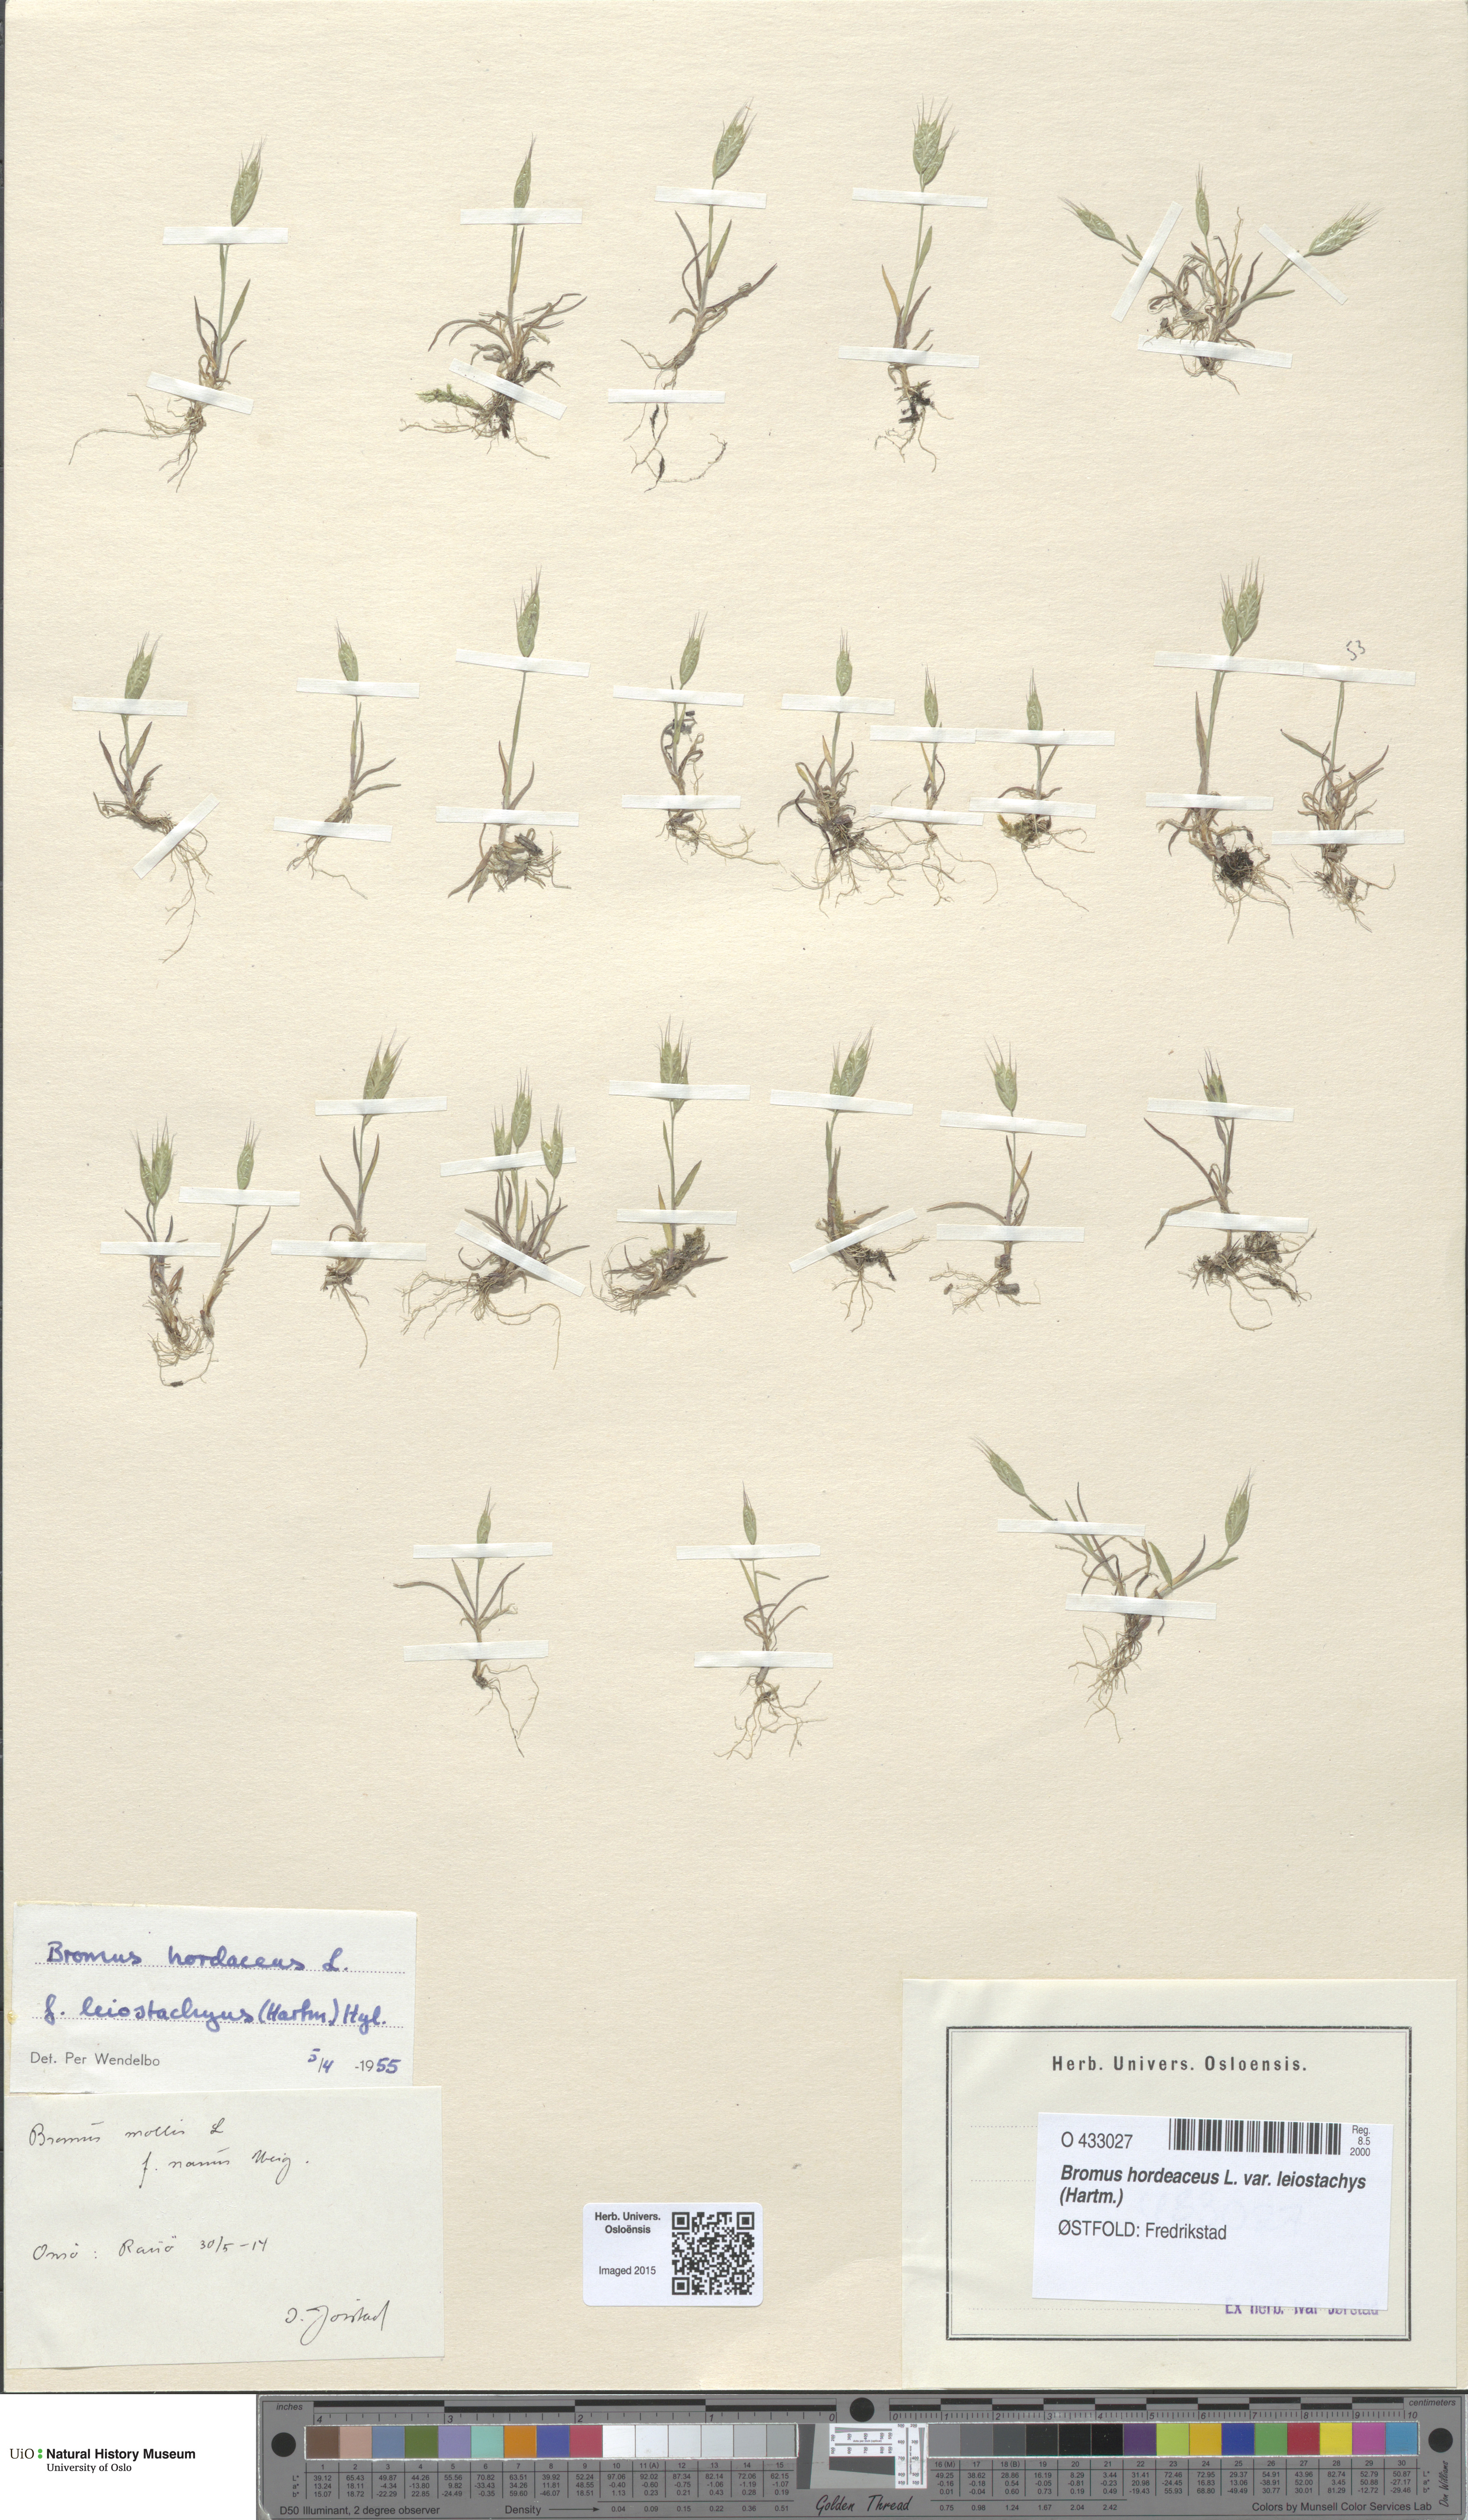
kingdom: Plantae
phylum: Tracheophyta
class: Liliopsida
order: Poales
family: Poaceae
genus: Bromus
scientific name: Bromus racemosus
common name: Bald brome
